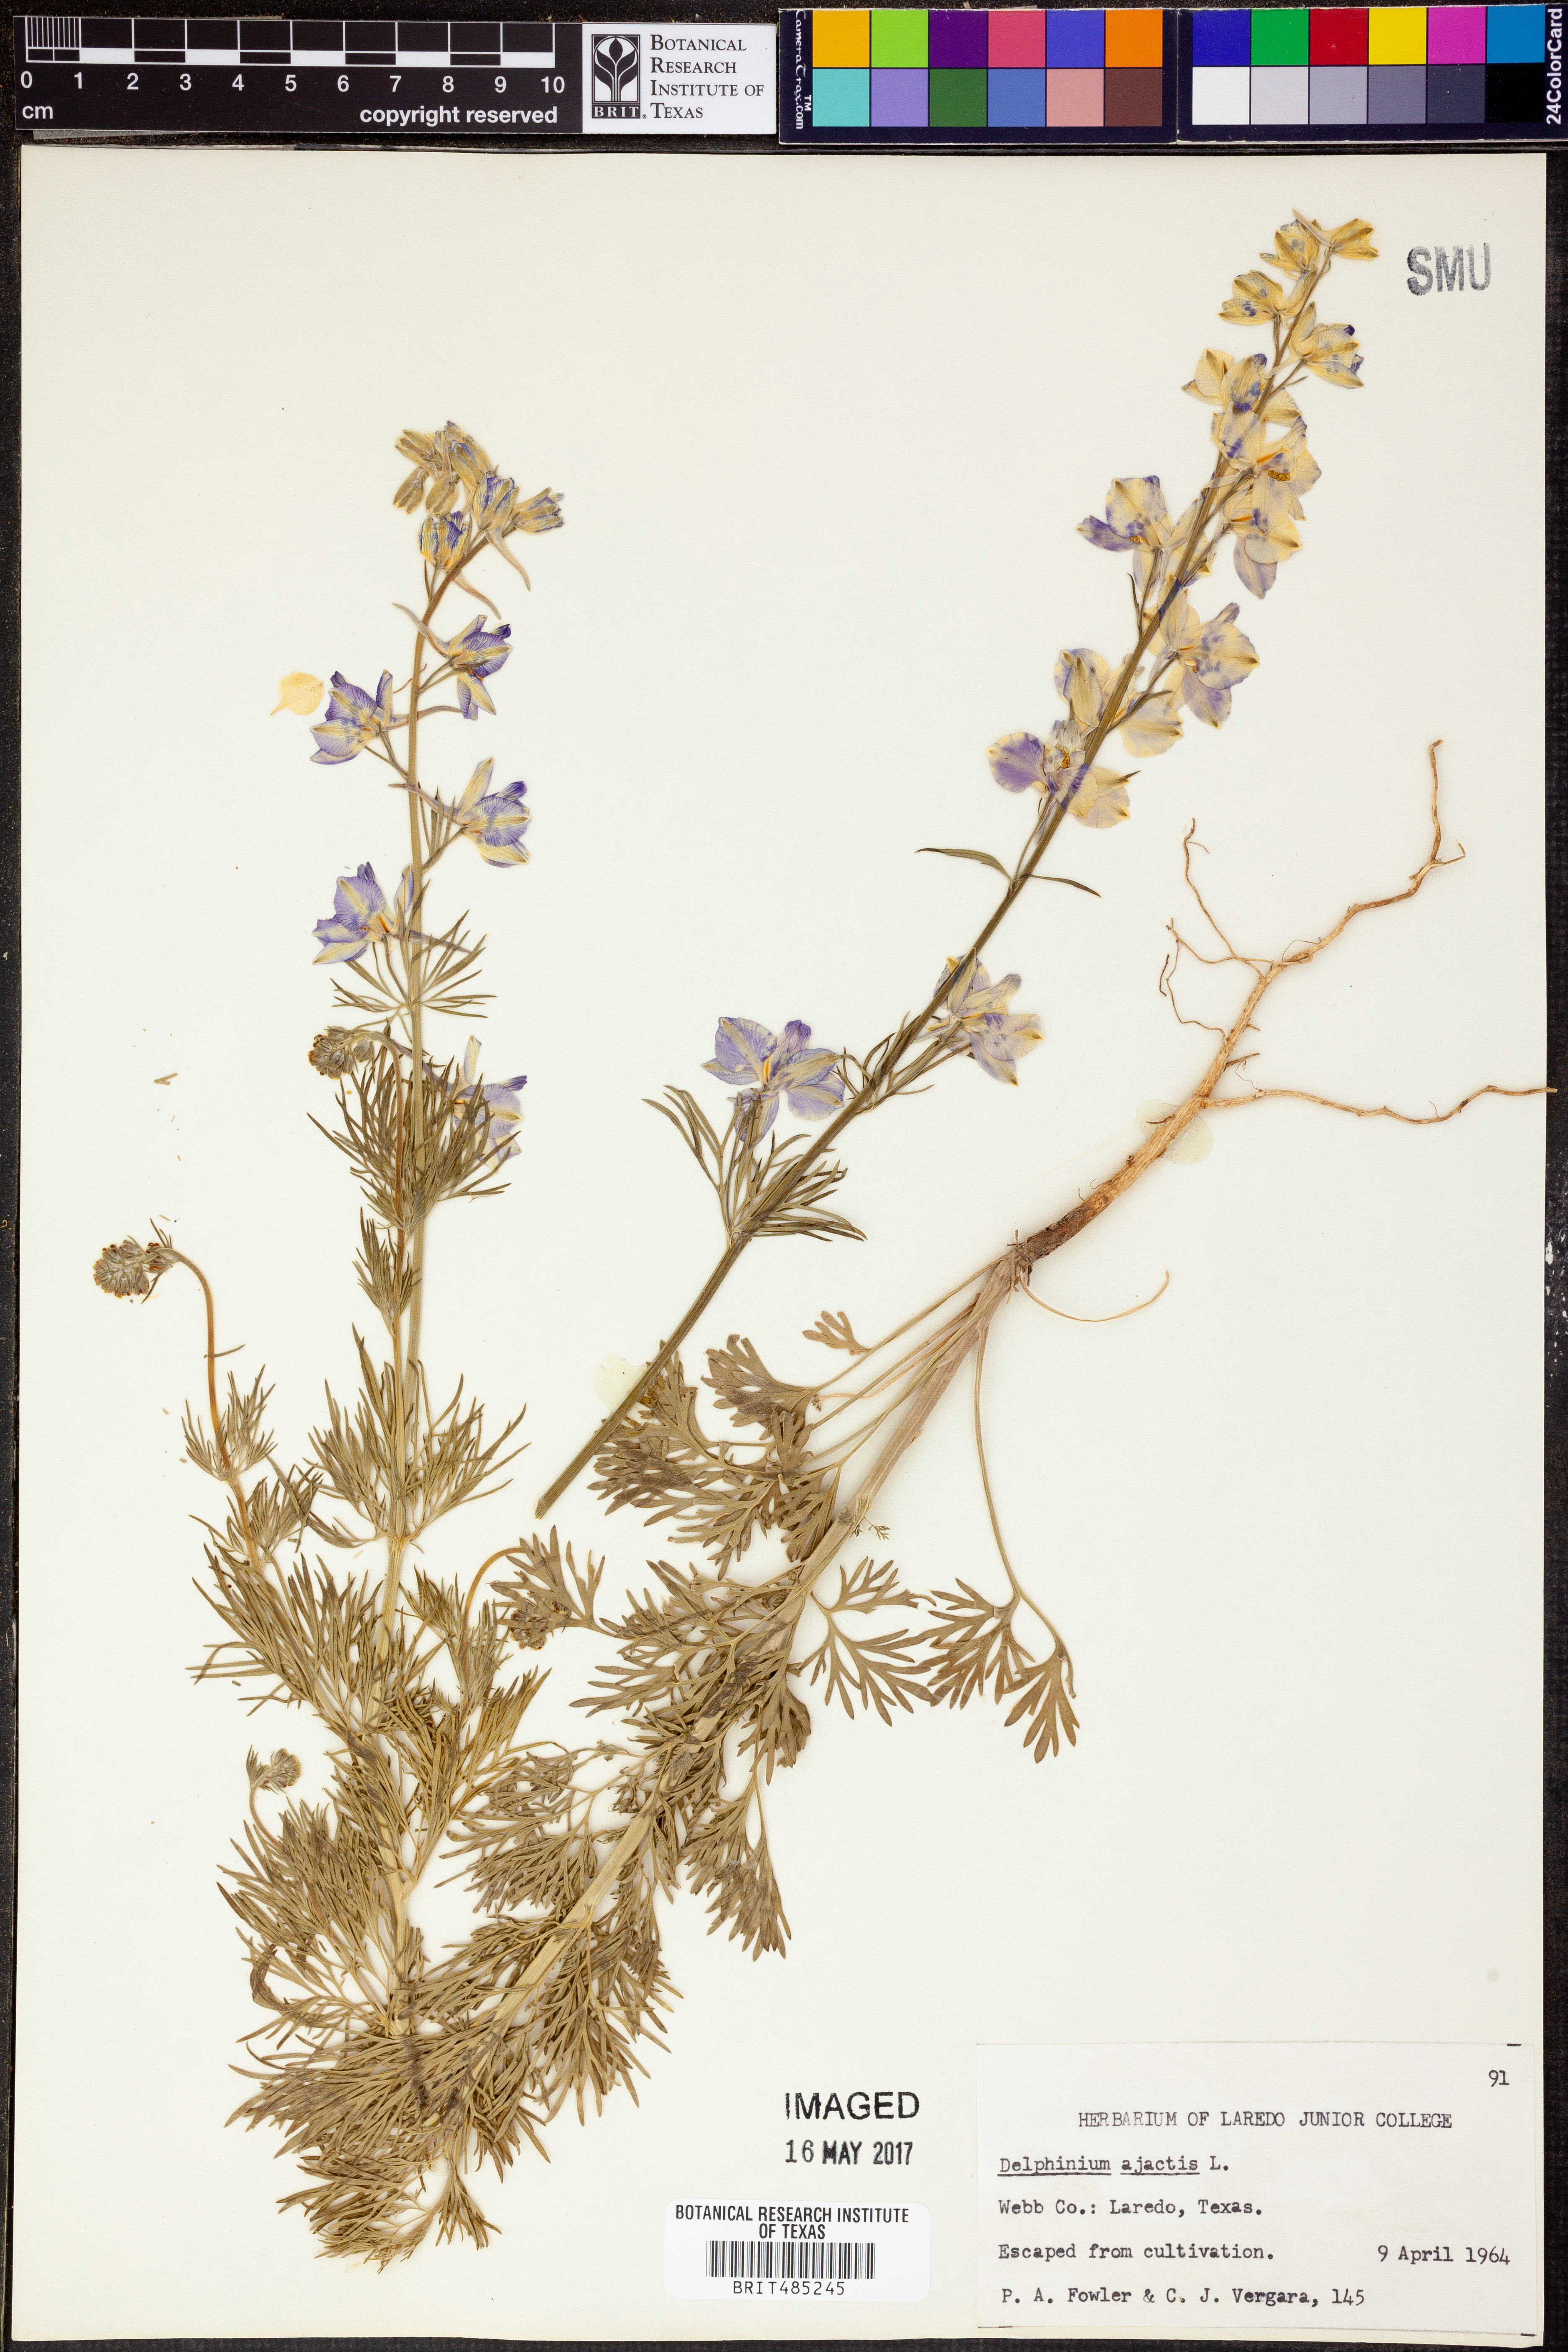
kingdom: Plantae
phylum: Tracheophyta
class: Magnoliopsida
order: Ranunculales
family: Ranunculaceae
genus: Delphinium
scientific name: Delphinium ajacis
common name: Doubtful knight's-spur
